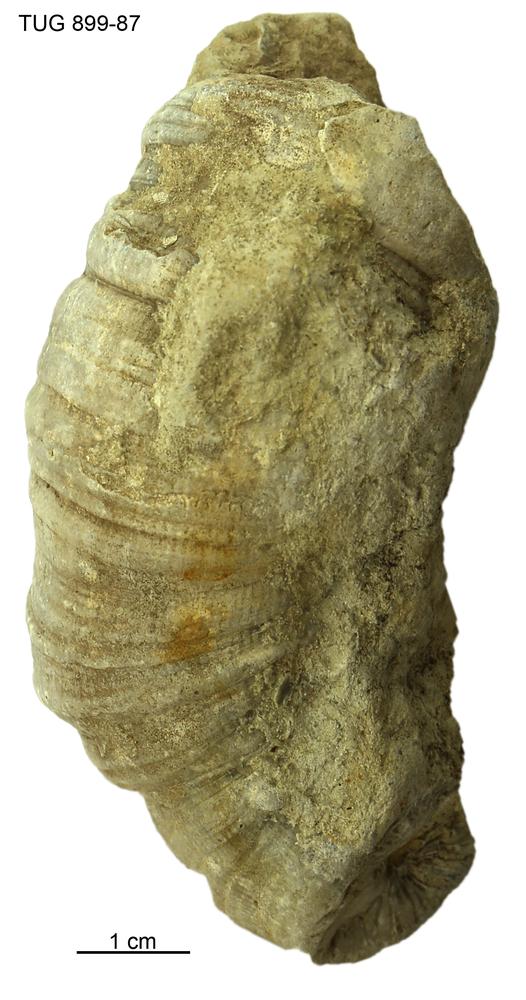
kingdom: Animalia
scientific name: Animalia
